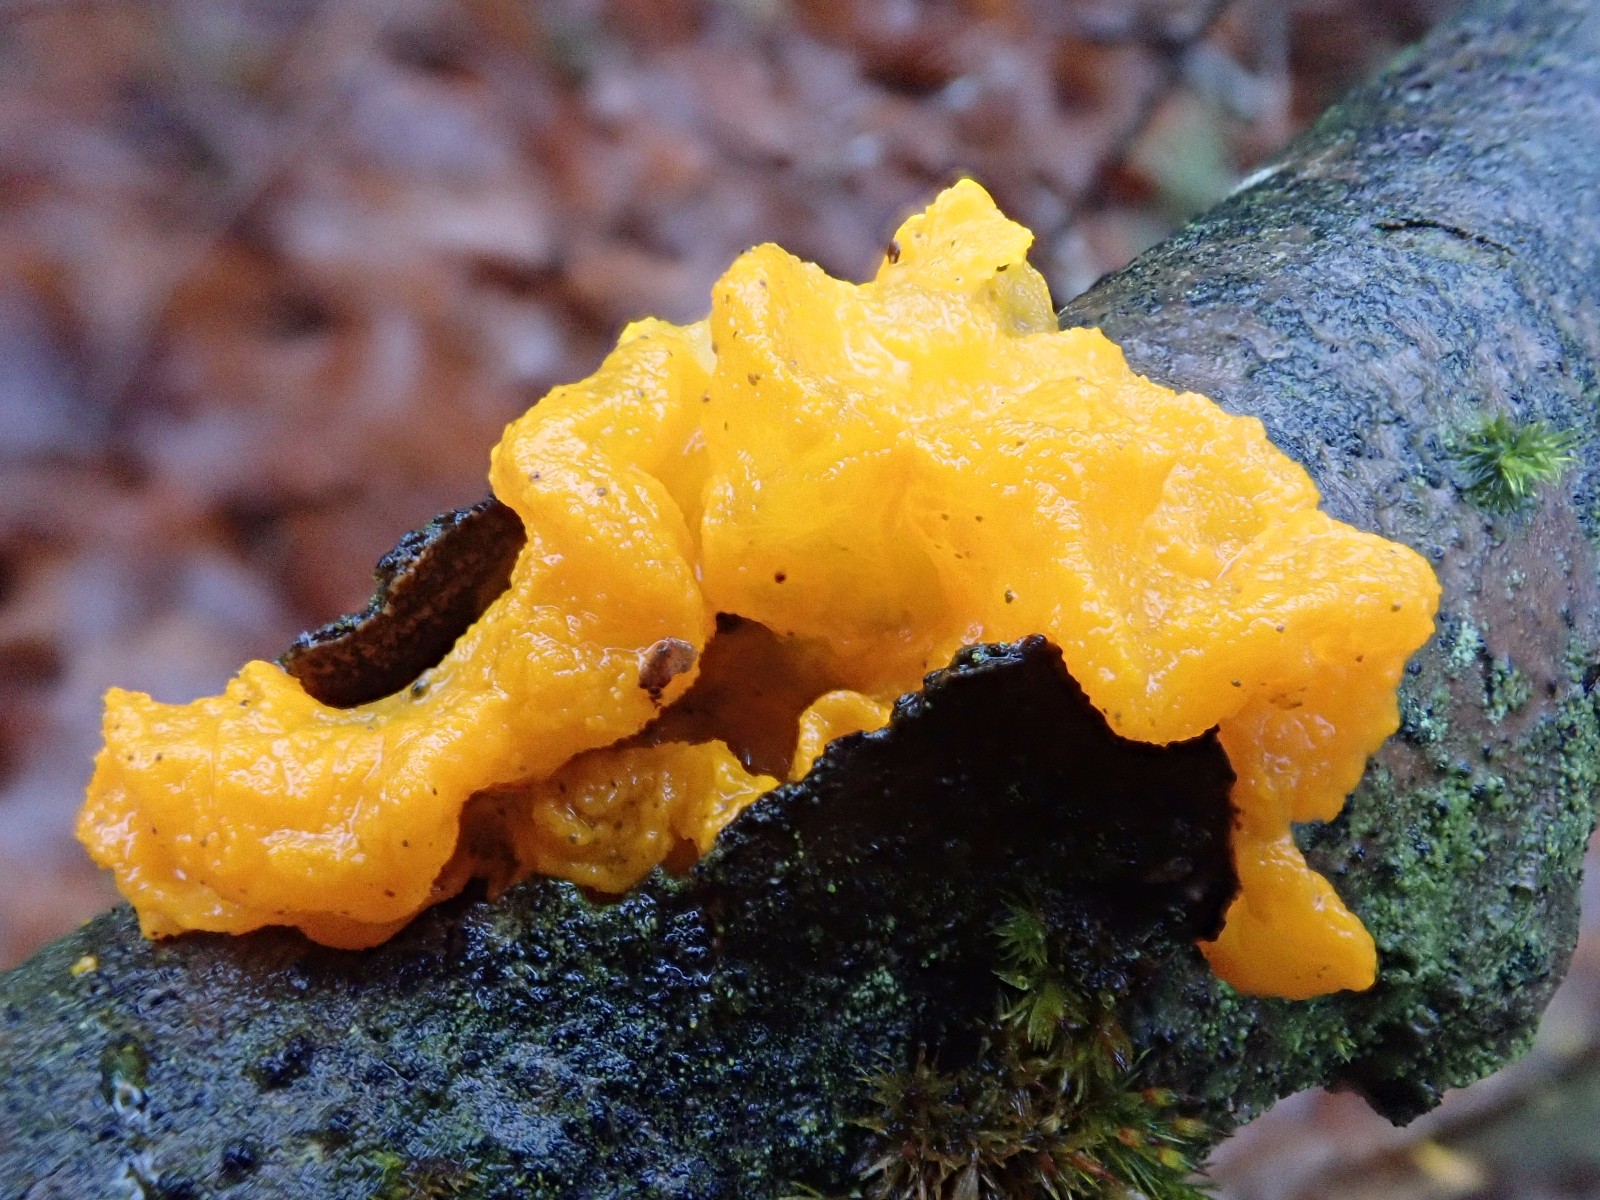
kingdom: Fungi
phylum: Basidiomycota
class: Tremellomycetes
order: Tremellales
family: Tremellaceae
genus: Tremella
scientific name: Tremella mesenterica
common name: gul bævresvamp
